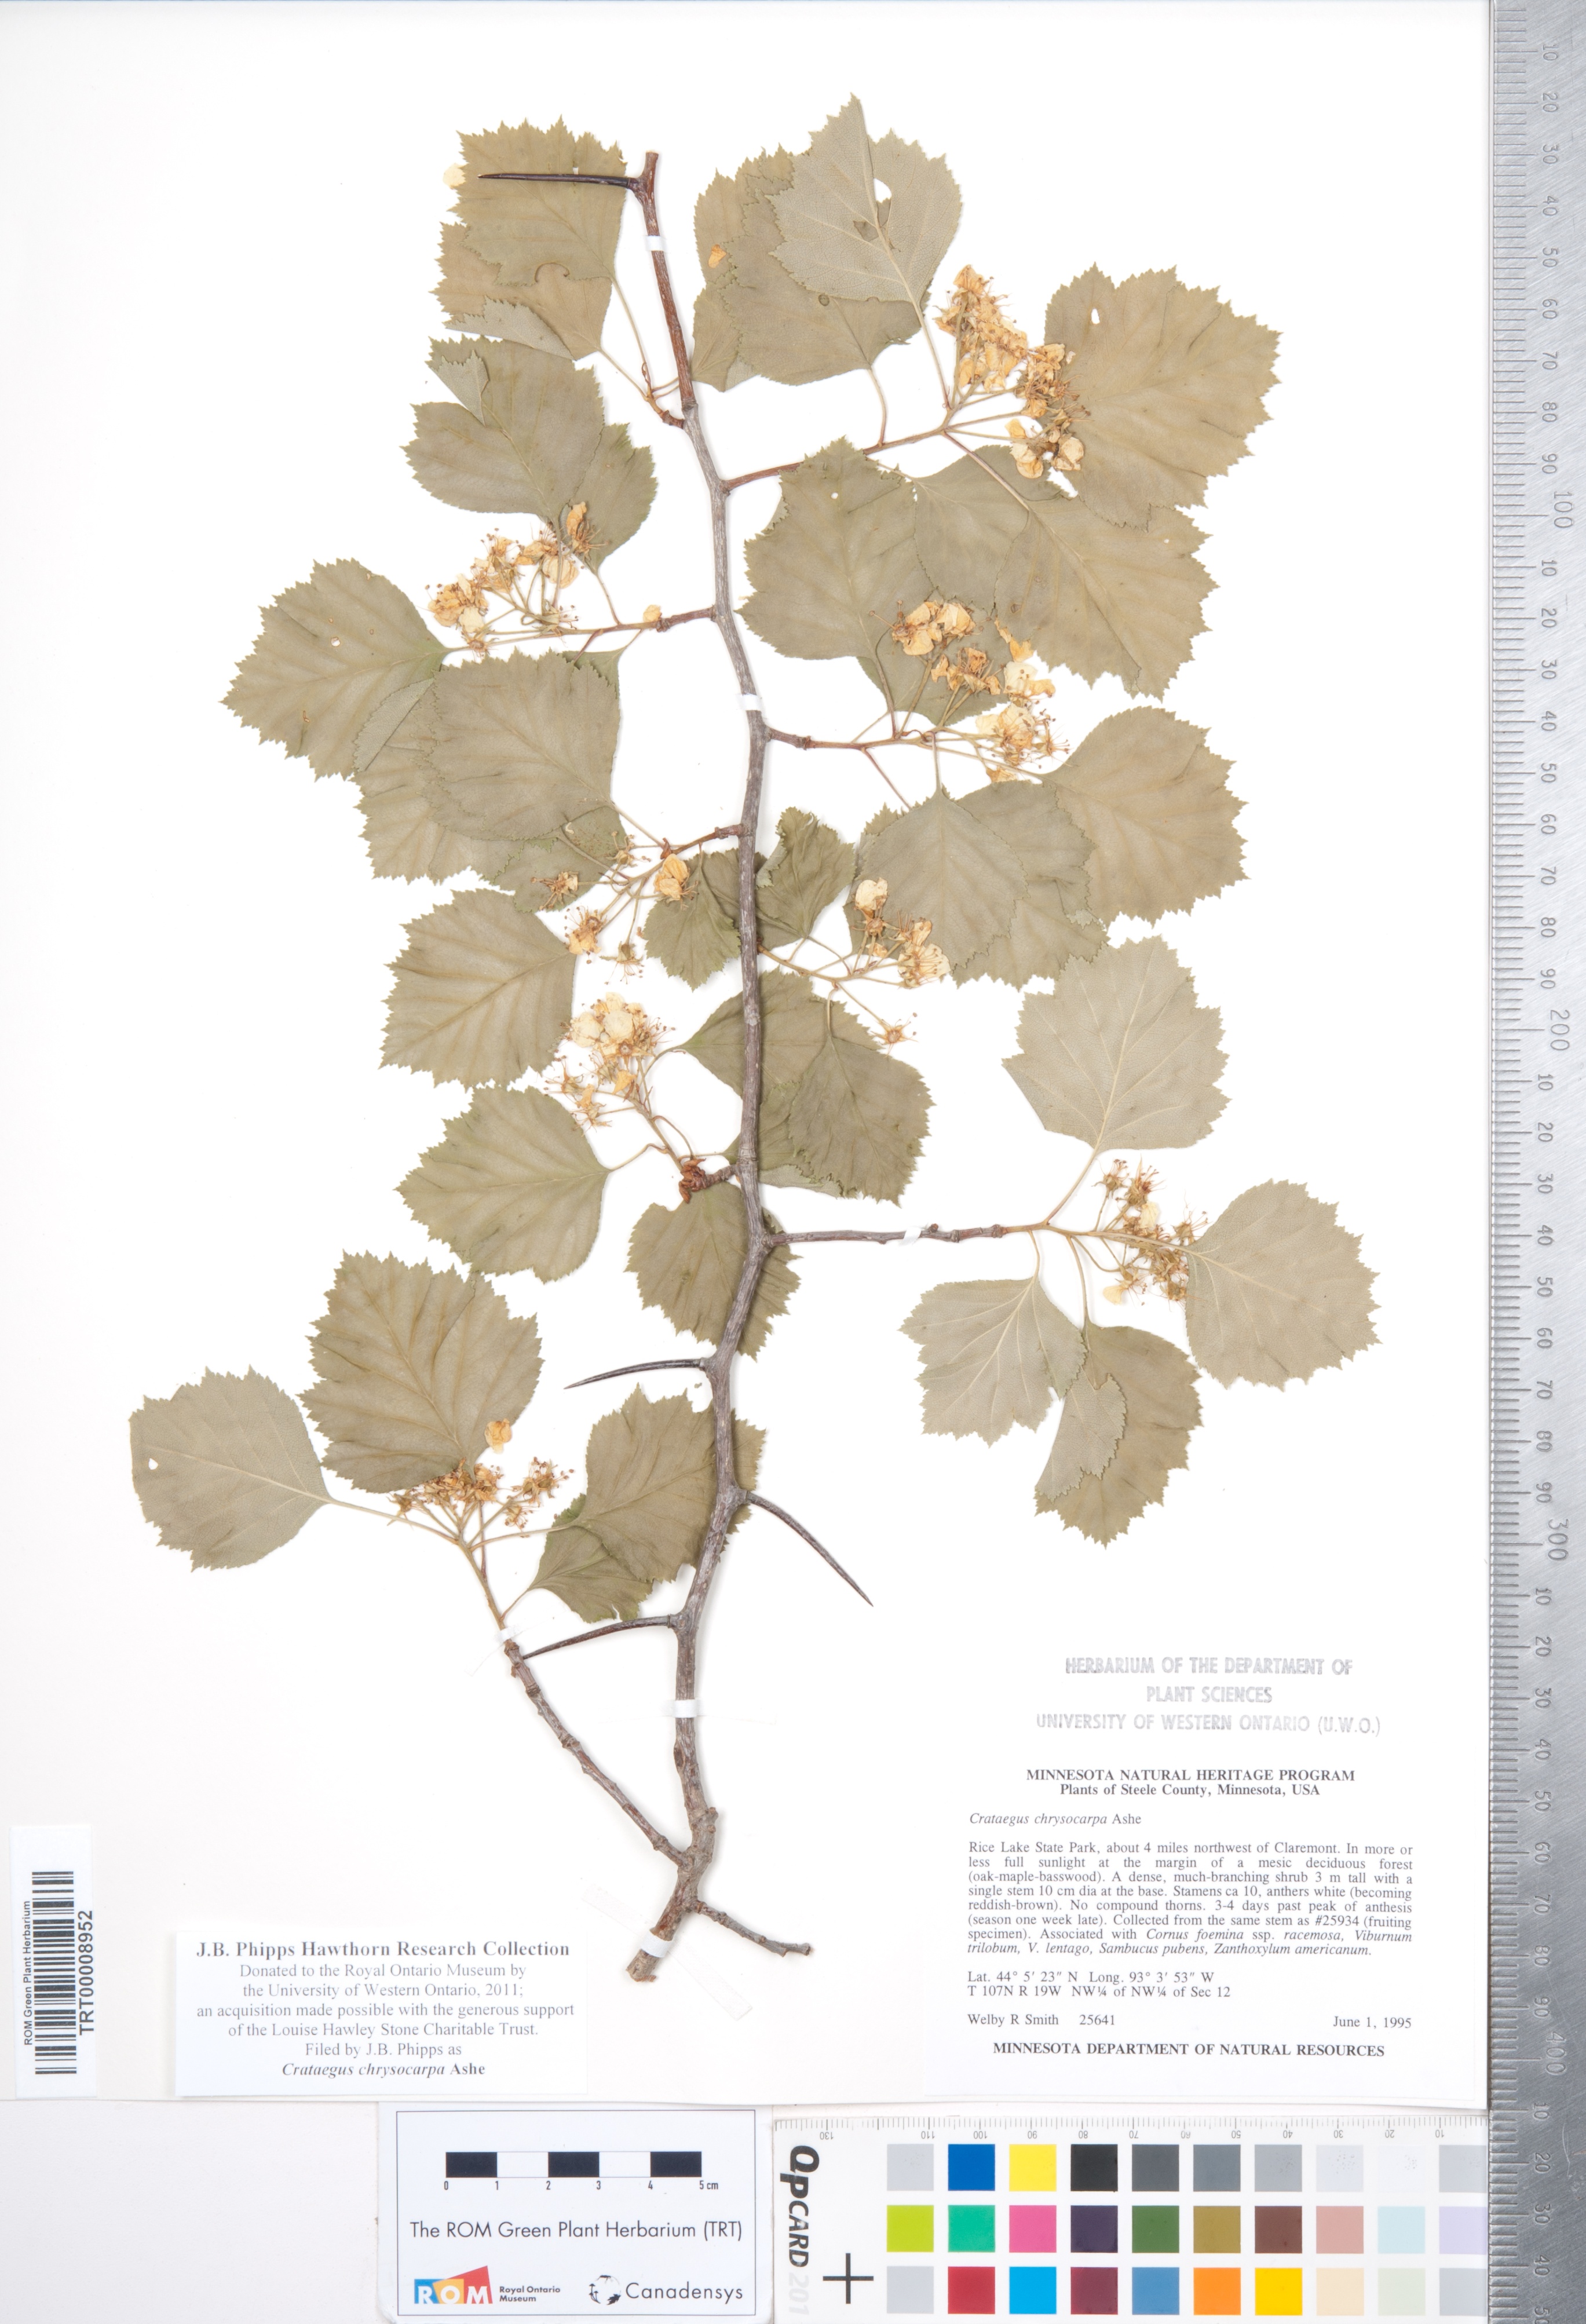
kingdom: Plantae
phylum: Tracheophyta
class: Magnoliopsida
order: Rosales
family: Rosaceae
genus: Crataegus
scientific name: Crataegus chrysocarpa
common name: Fire-berry hawthorn
